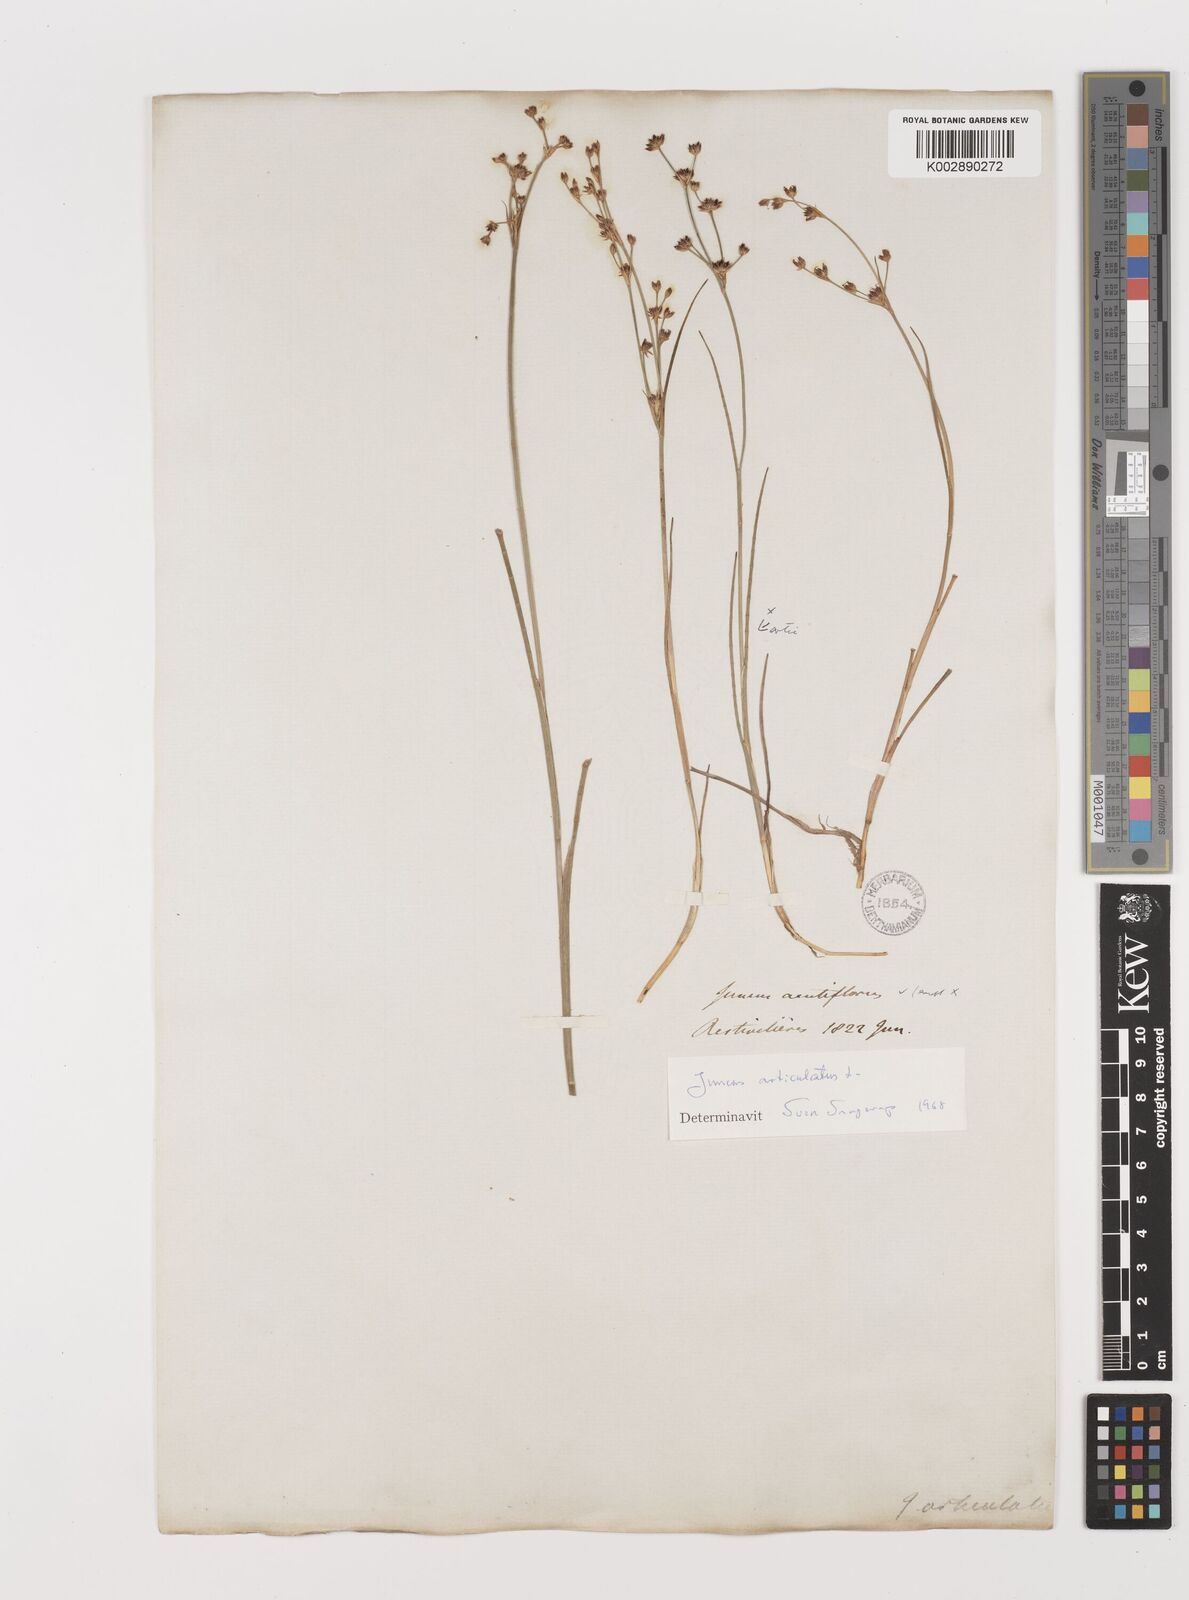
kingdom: Plantae
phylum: Tracheophyta
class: Liliopsida
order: Poales
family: Juncaceae
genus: Juncus
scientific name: Juncus articulatus
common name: Jointed rush
